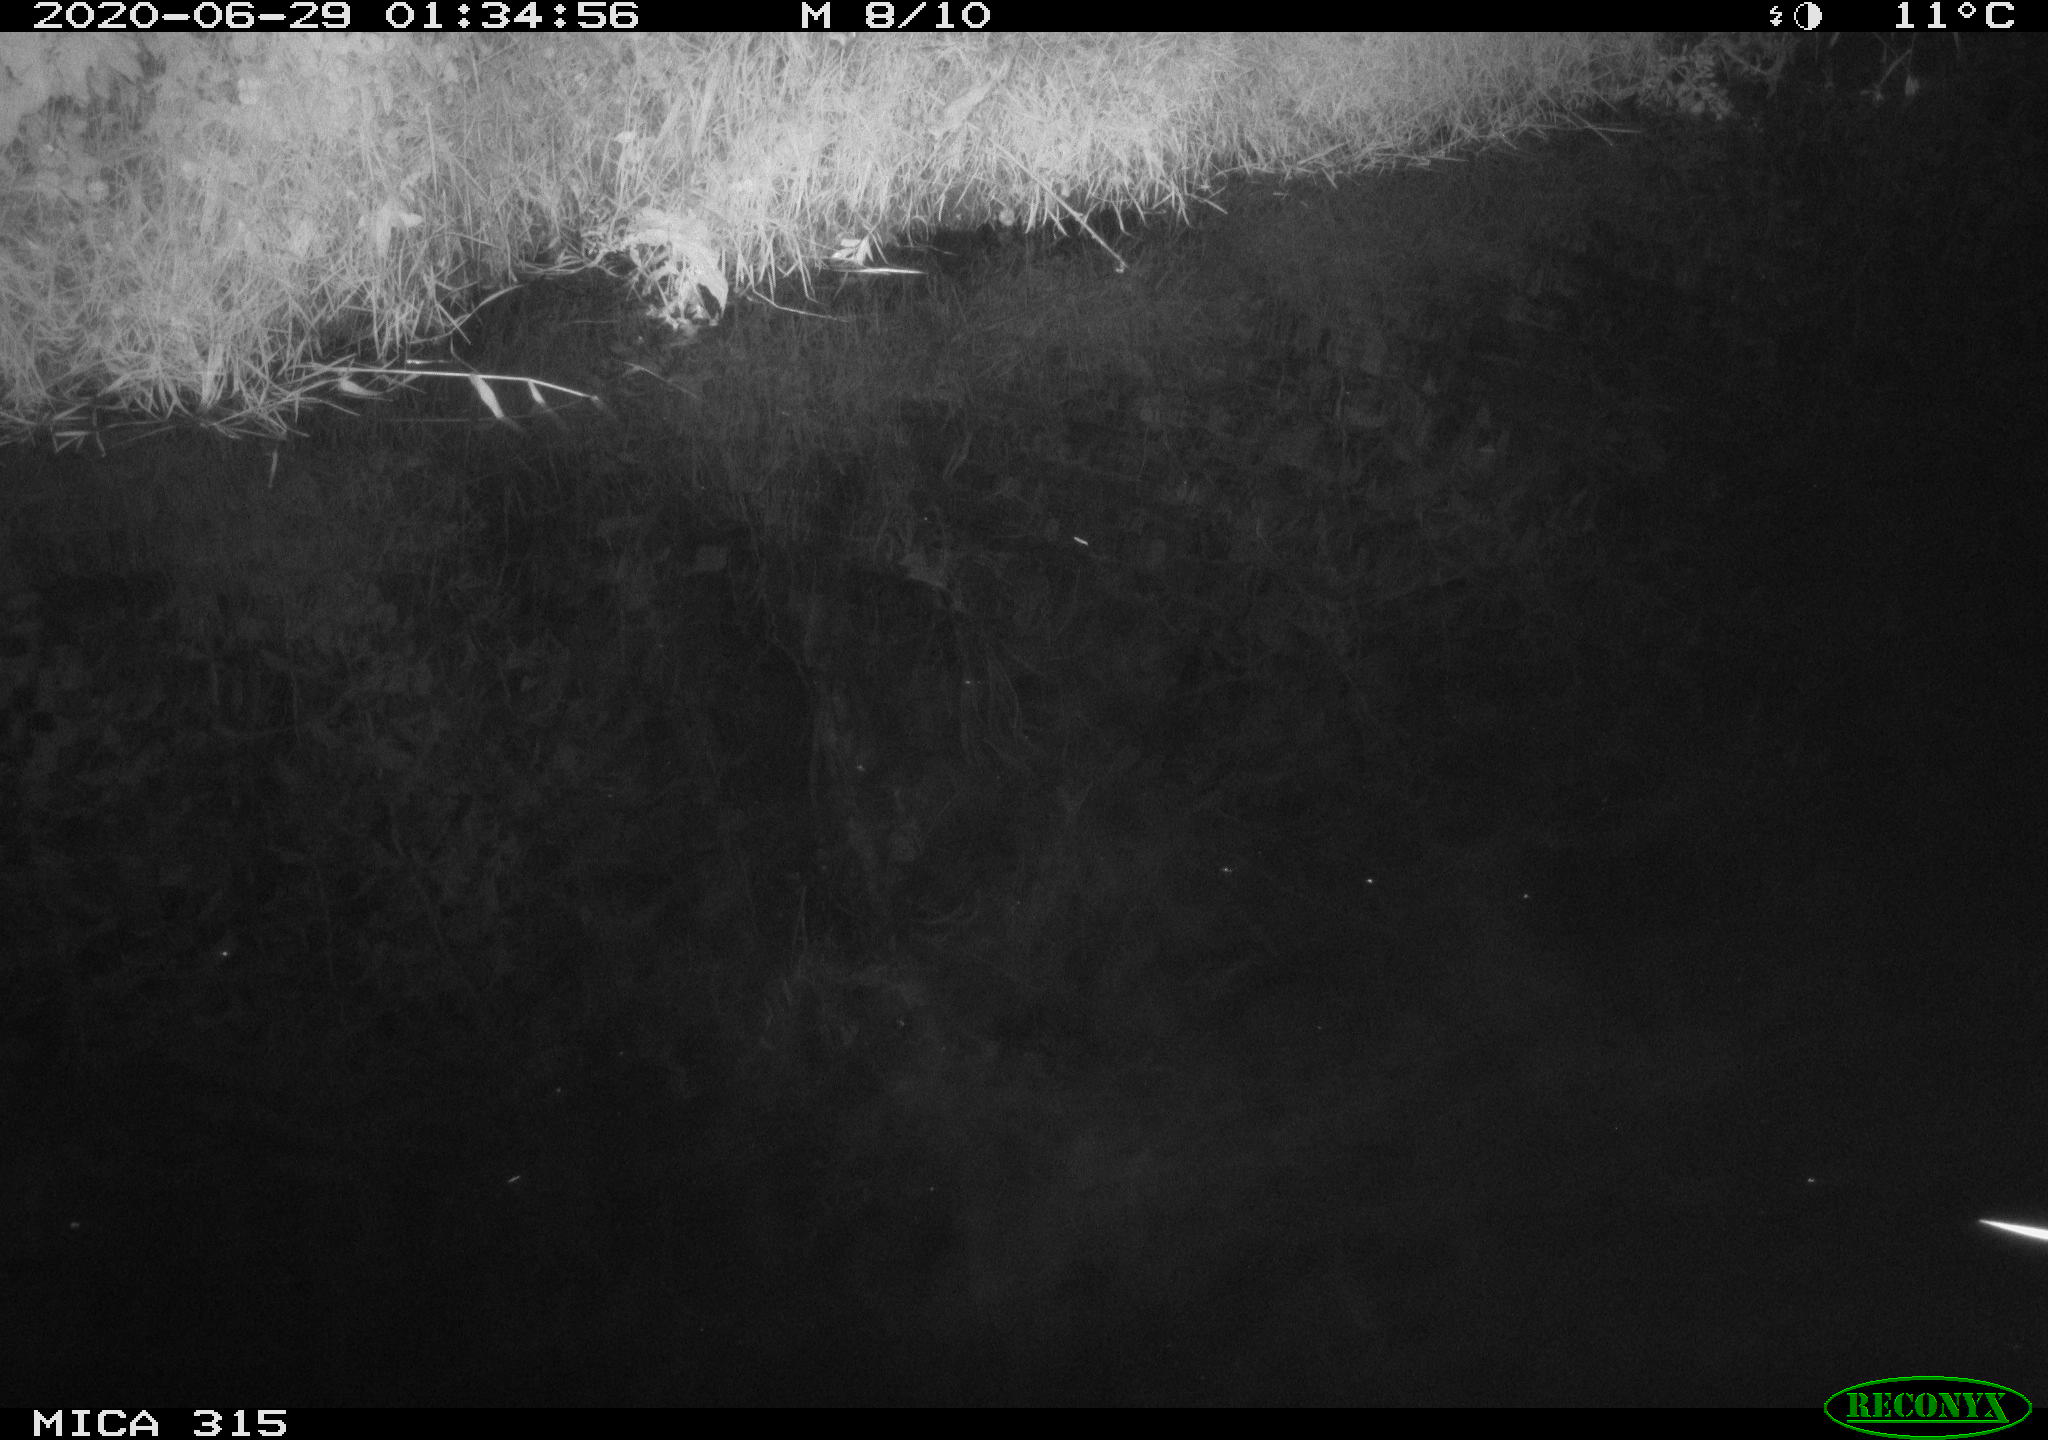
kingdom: Animalia
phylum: Chordata
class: Aves
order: Anseriformes
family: Anatidae
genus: Anas
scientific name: Anas platyrhynchos
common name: Mallard
